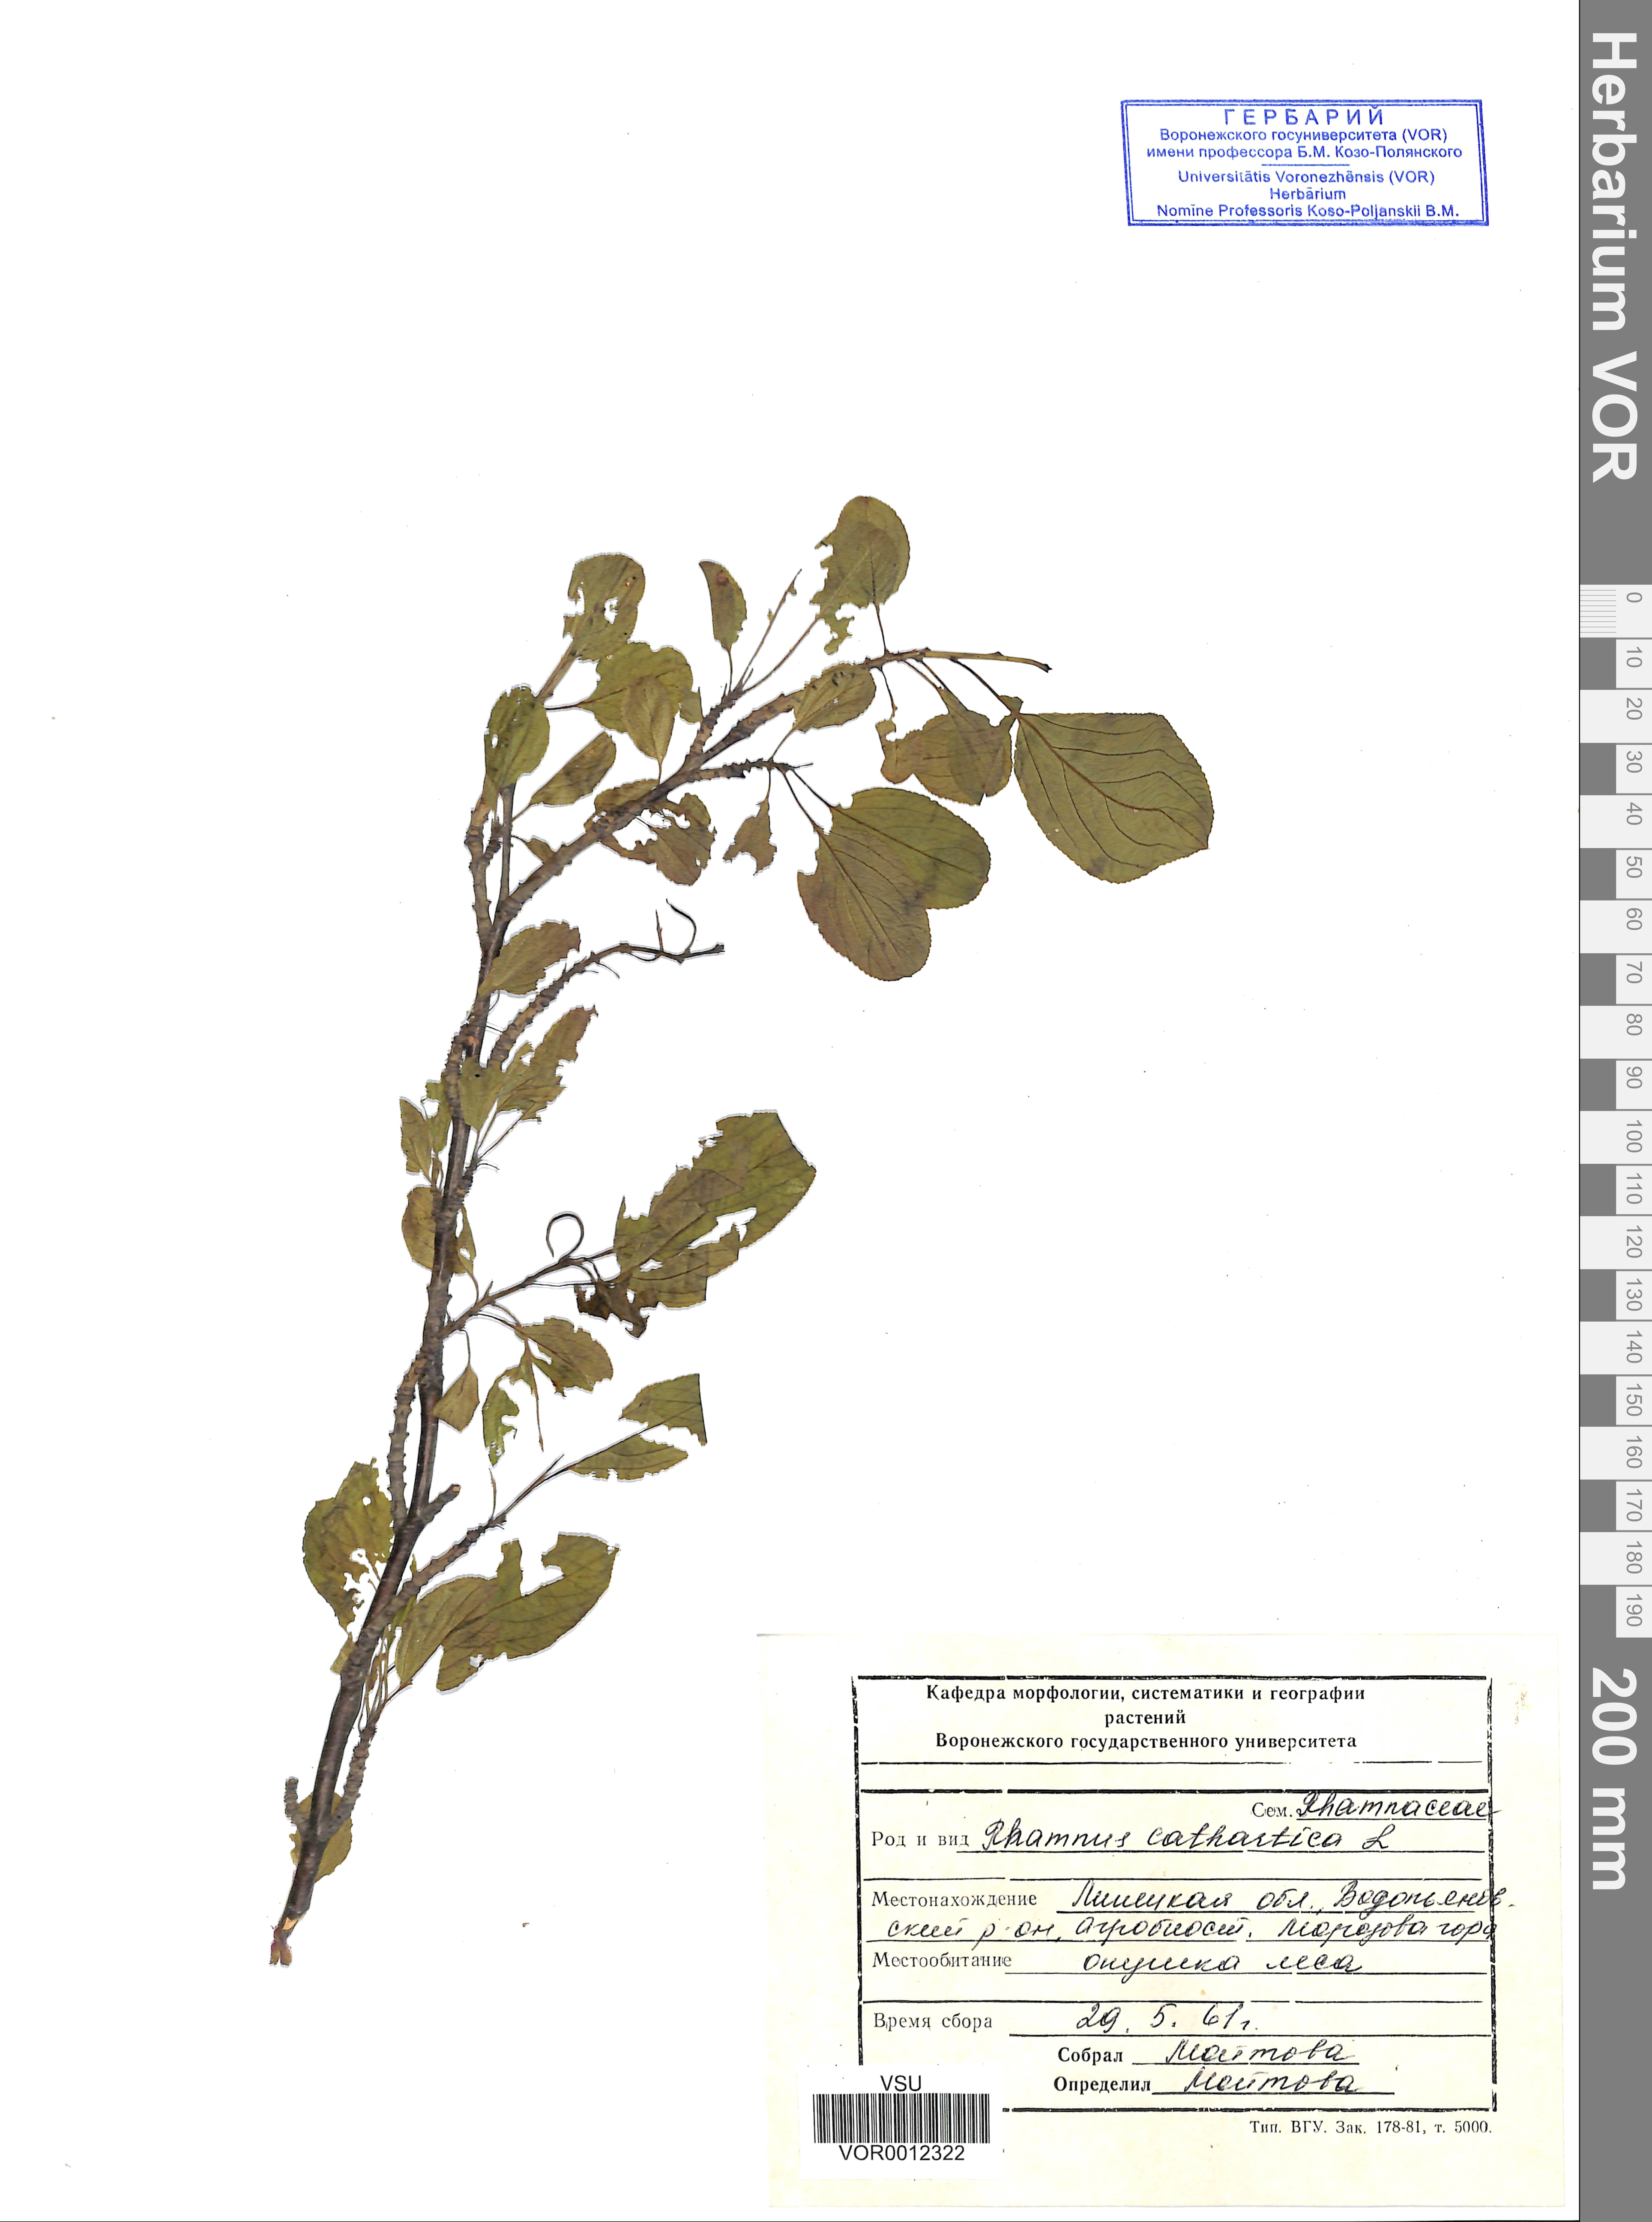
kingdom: Plantae
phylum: Tracheophyta
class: Magnoliopsida
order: Rosales
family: Rhamnaceae
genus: Rhamnus
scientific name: Rhamnus cathartica
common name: Common buckthorn
